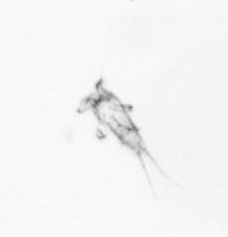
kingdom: Animalia
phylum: Arthropoda
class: Copepoda
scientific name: Copepoda
